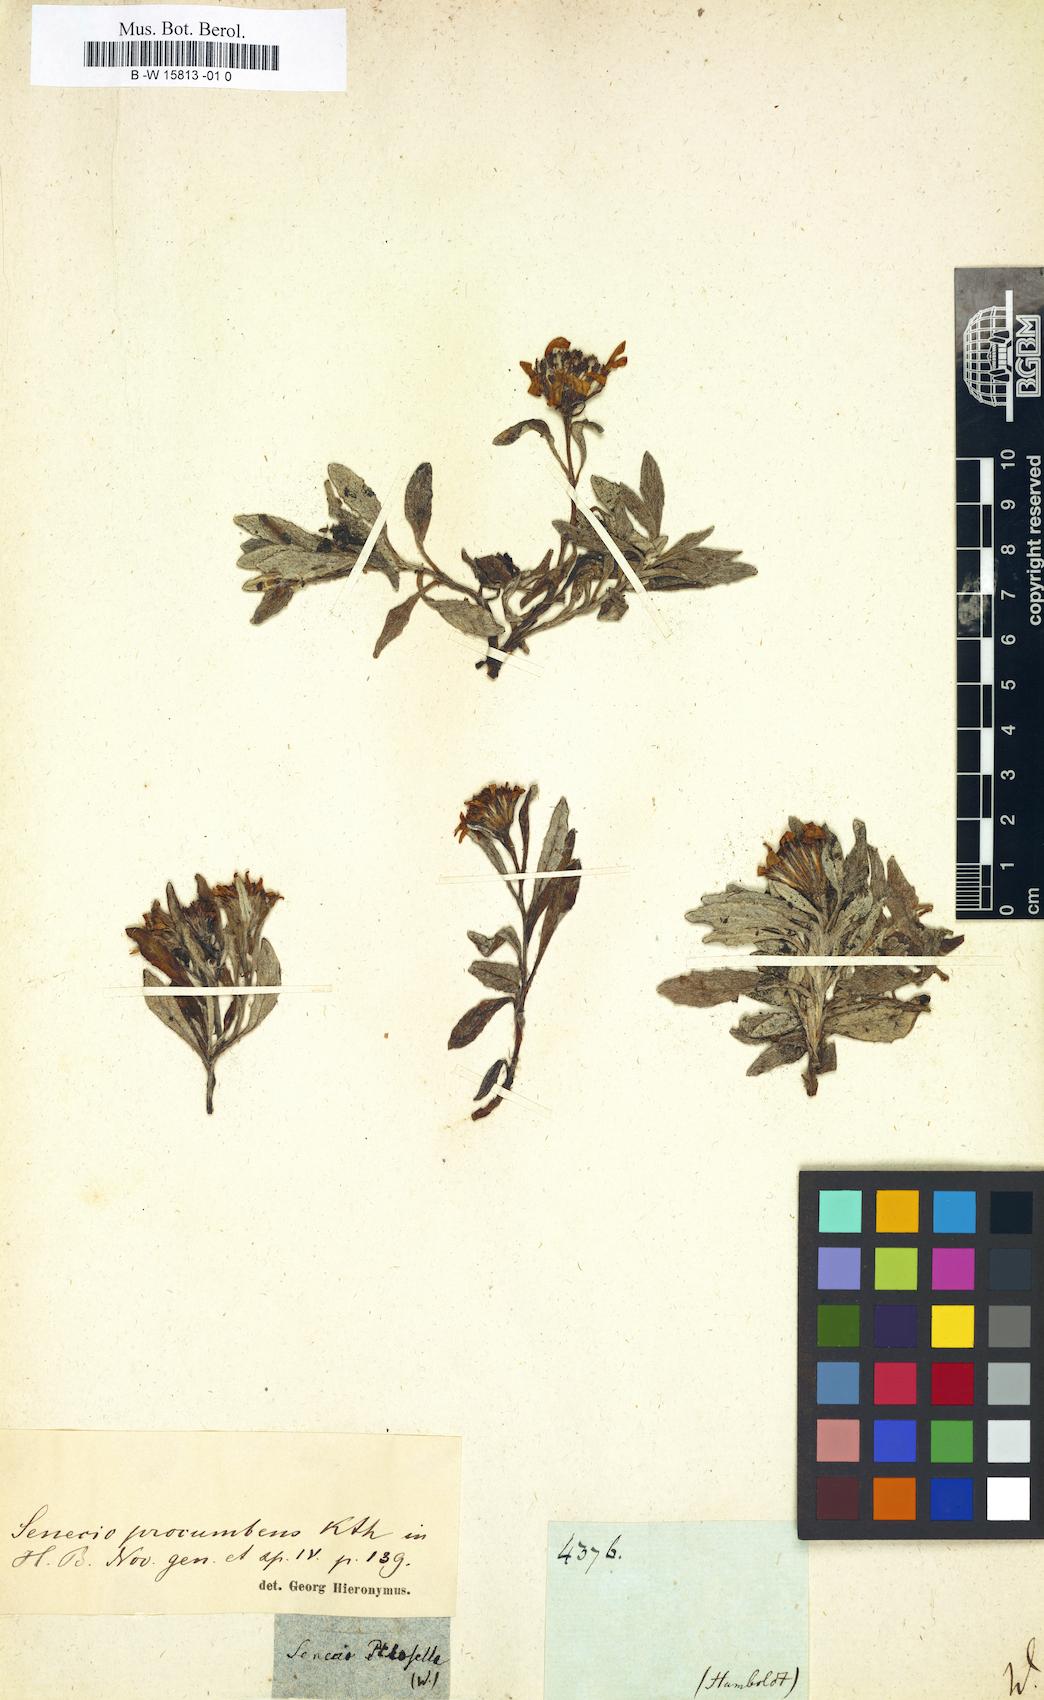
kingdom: Plantae
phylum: Tracheophyta
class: Magnoliopsida
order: Asterales
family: Asteraceae
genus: Emilia
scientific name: Emilia lyrata
